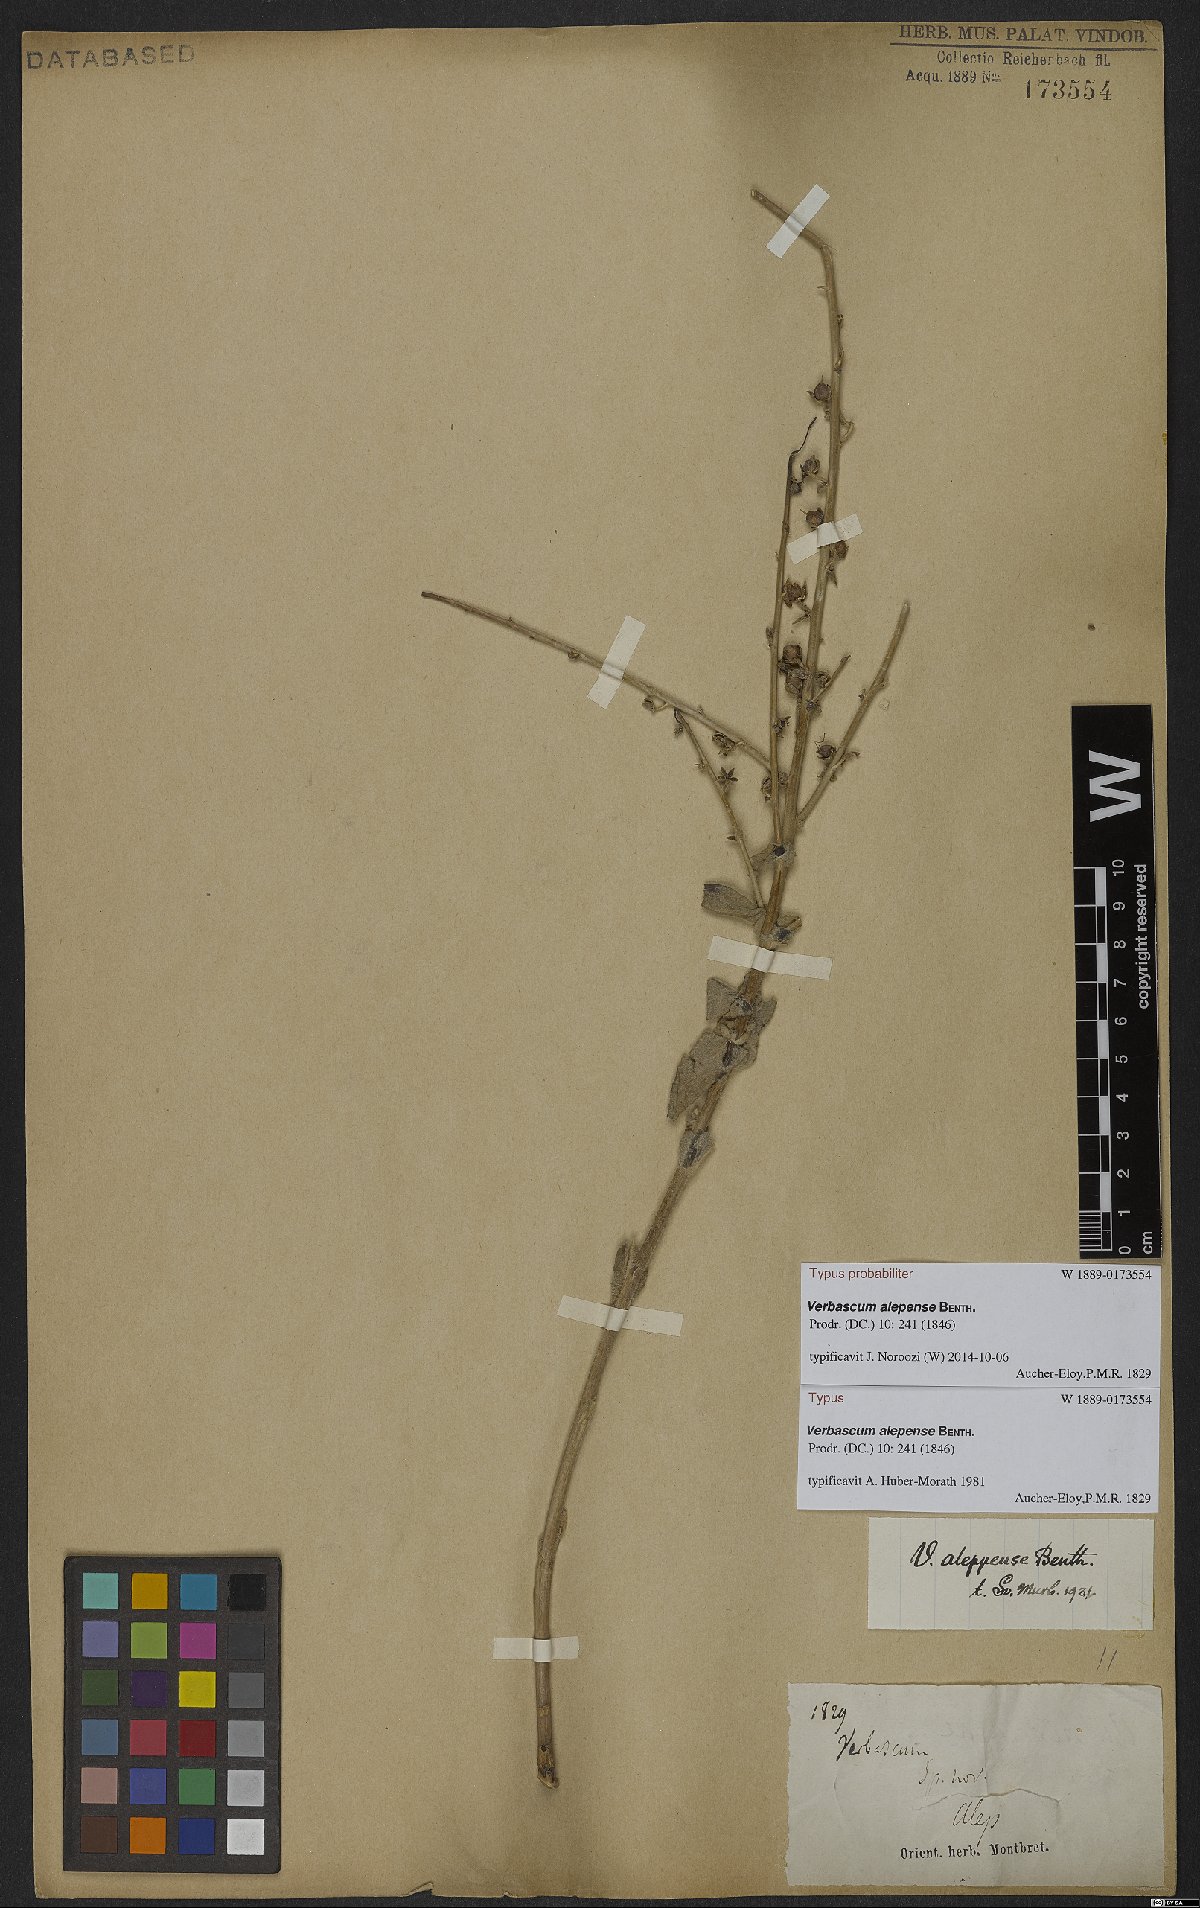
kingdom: Plantae
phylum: Tracheophyta
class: Magnoliopsida
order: Lamiales
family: Scrophulariaceae
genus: Verbascum
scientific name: Verbascum alepense
